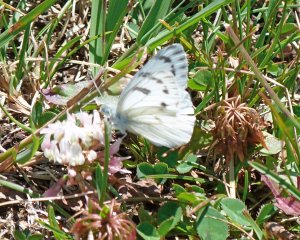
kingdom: Animalia
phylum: Arthropoda
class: Insecta
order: Lepidoptera
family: Pieridae
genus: Pontia
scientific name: Pontia occidentalis
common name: Western White
